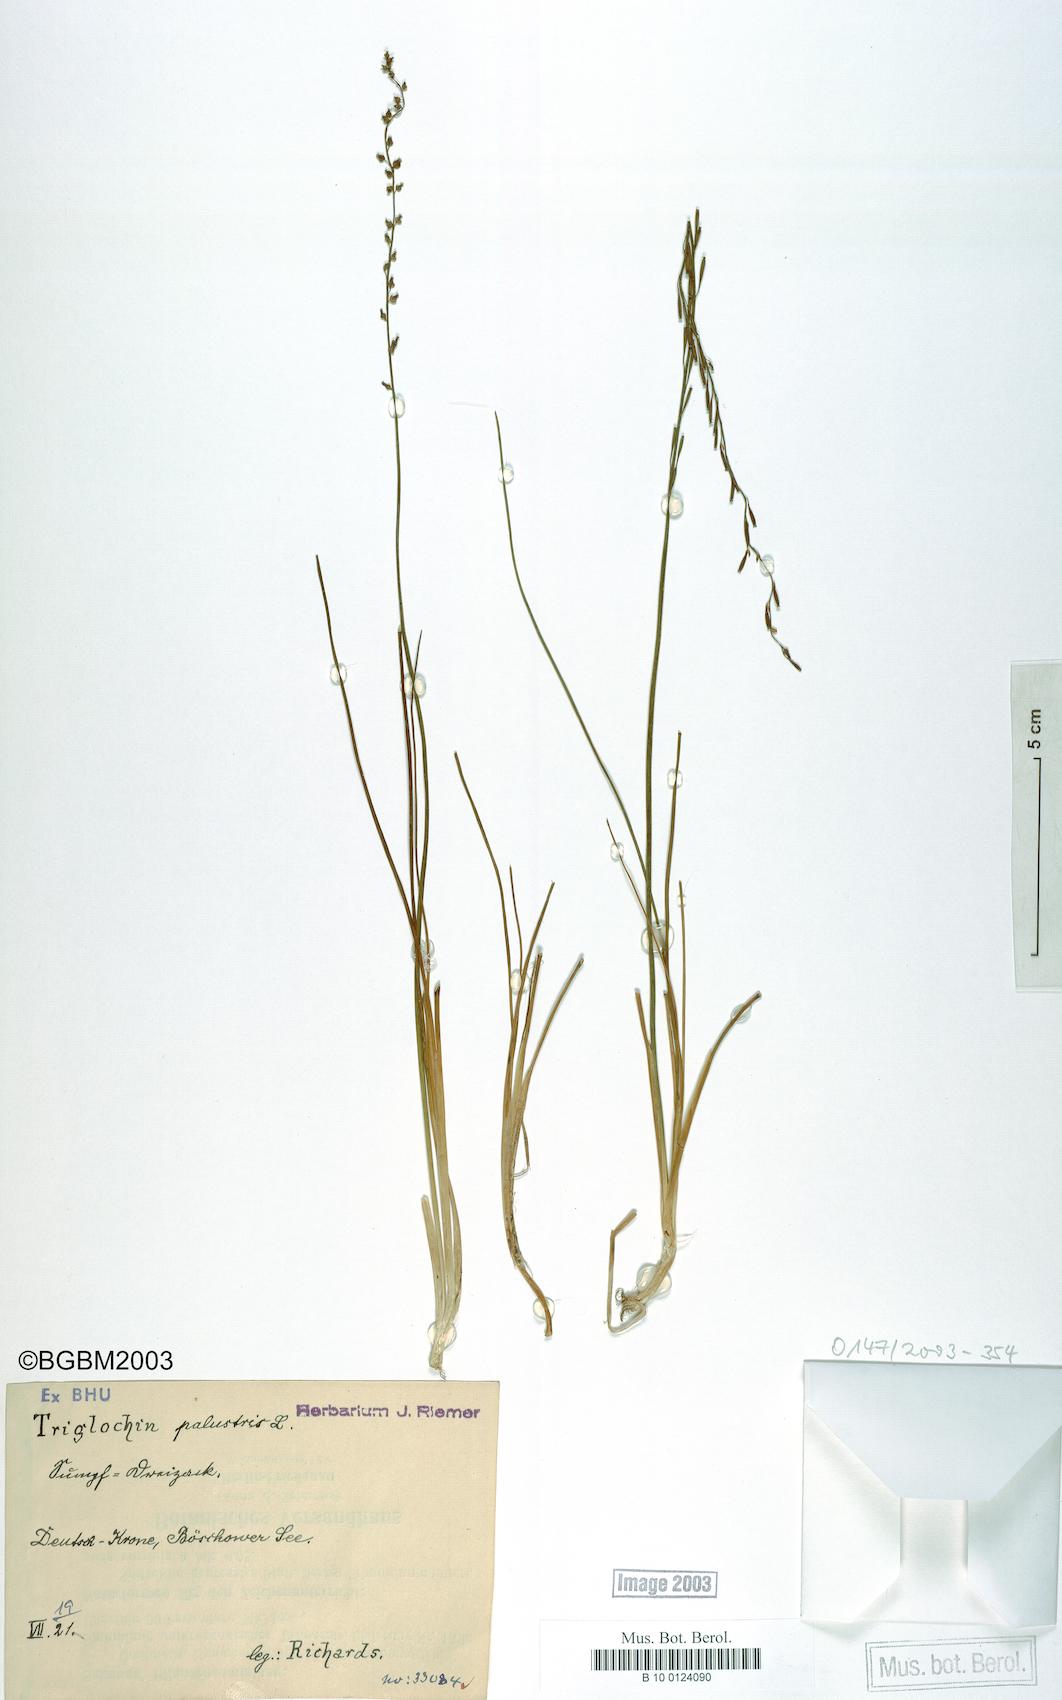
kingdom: Plantae
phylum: Tracheophyta
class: Liliopsida
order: Alismatales
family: Juncaginaceae
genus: Triglochin
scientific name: Triglochin palustris
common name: Marsh arrowgrass
